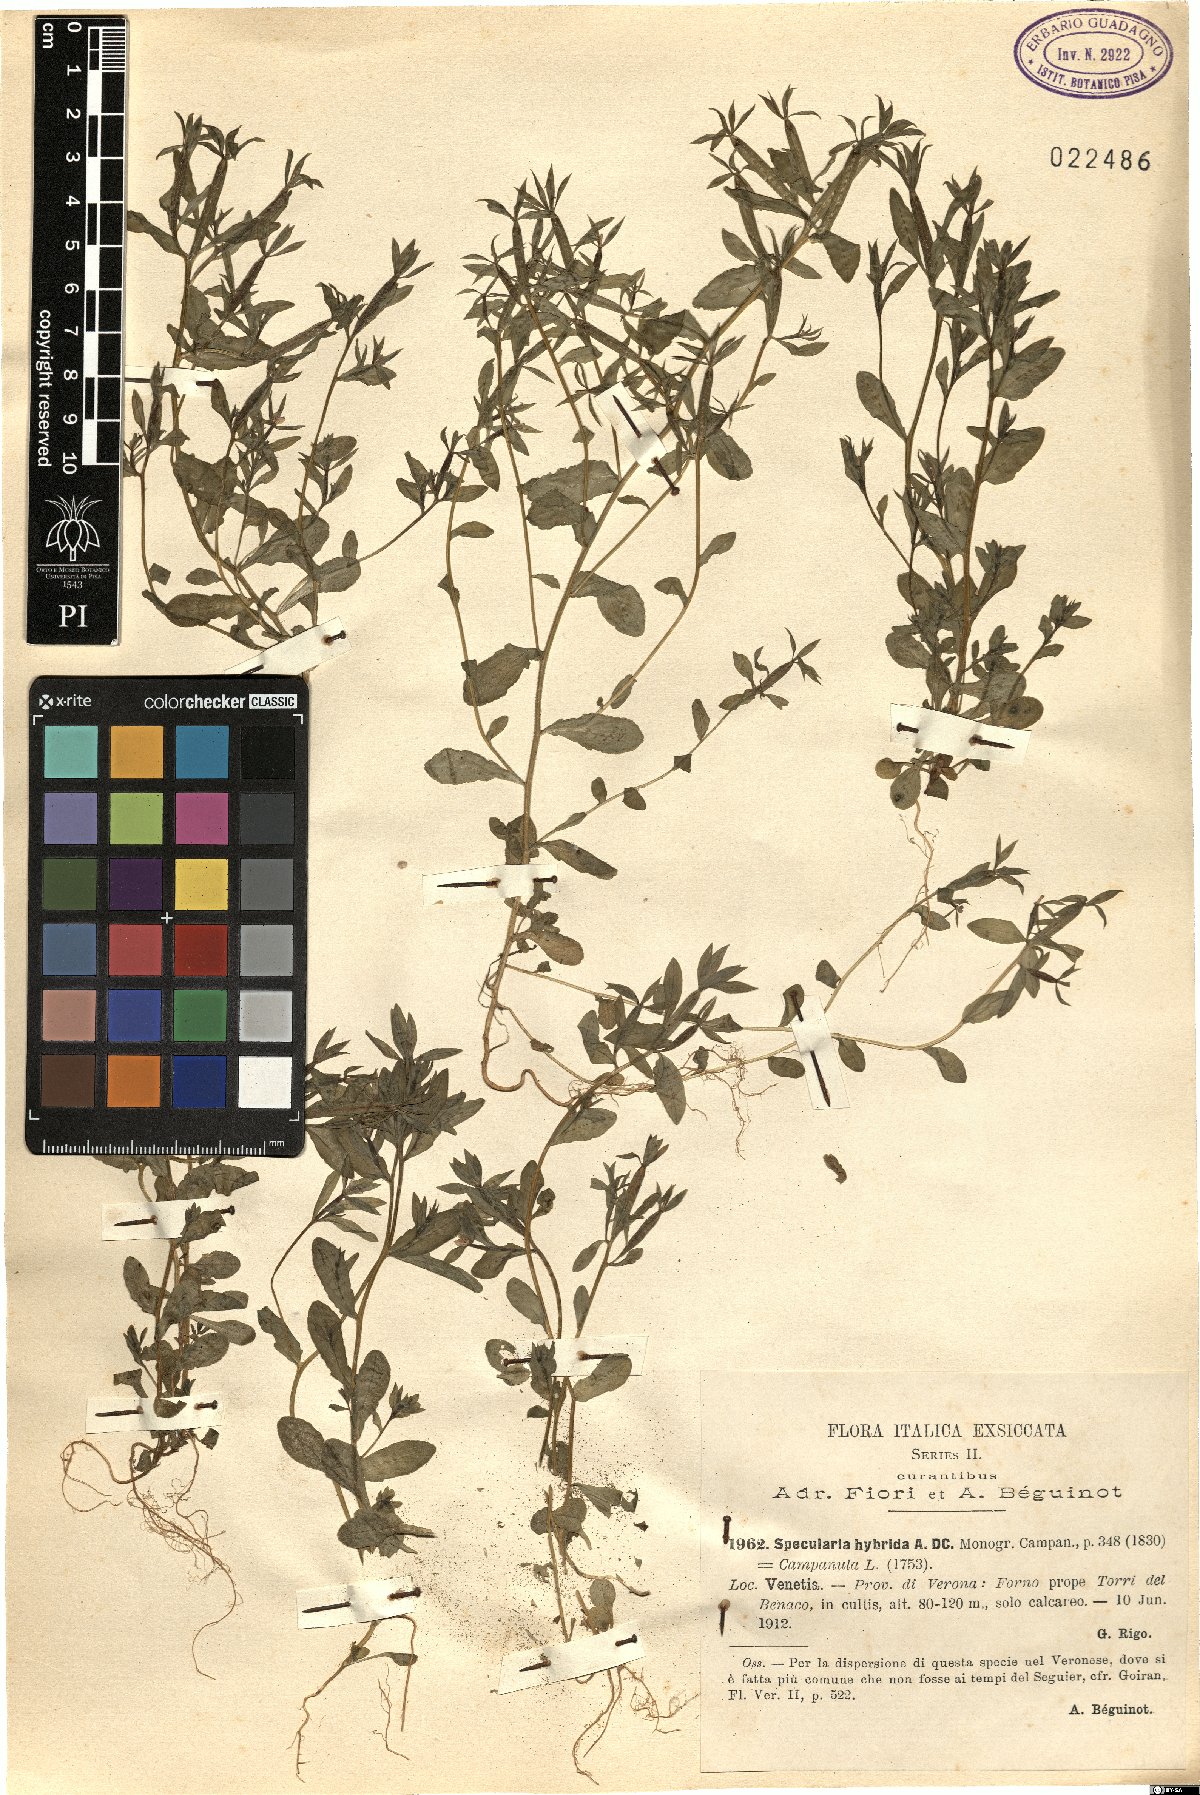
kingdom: Plantae
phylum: Tracheophyta
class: Magnoliopsida
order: Asterales
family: Campanulaceae
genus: Legousia
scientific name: Legousia hybrida
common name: Venus's-looking-glass
